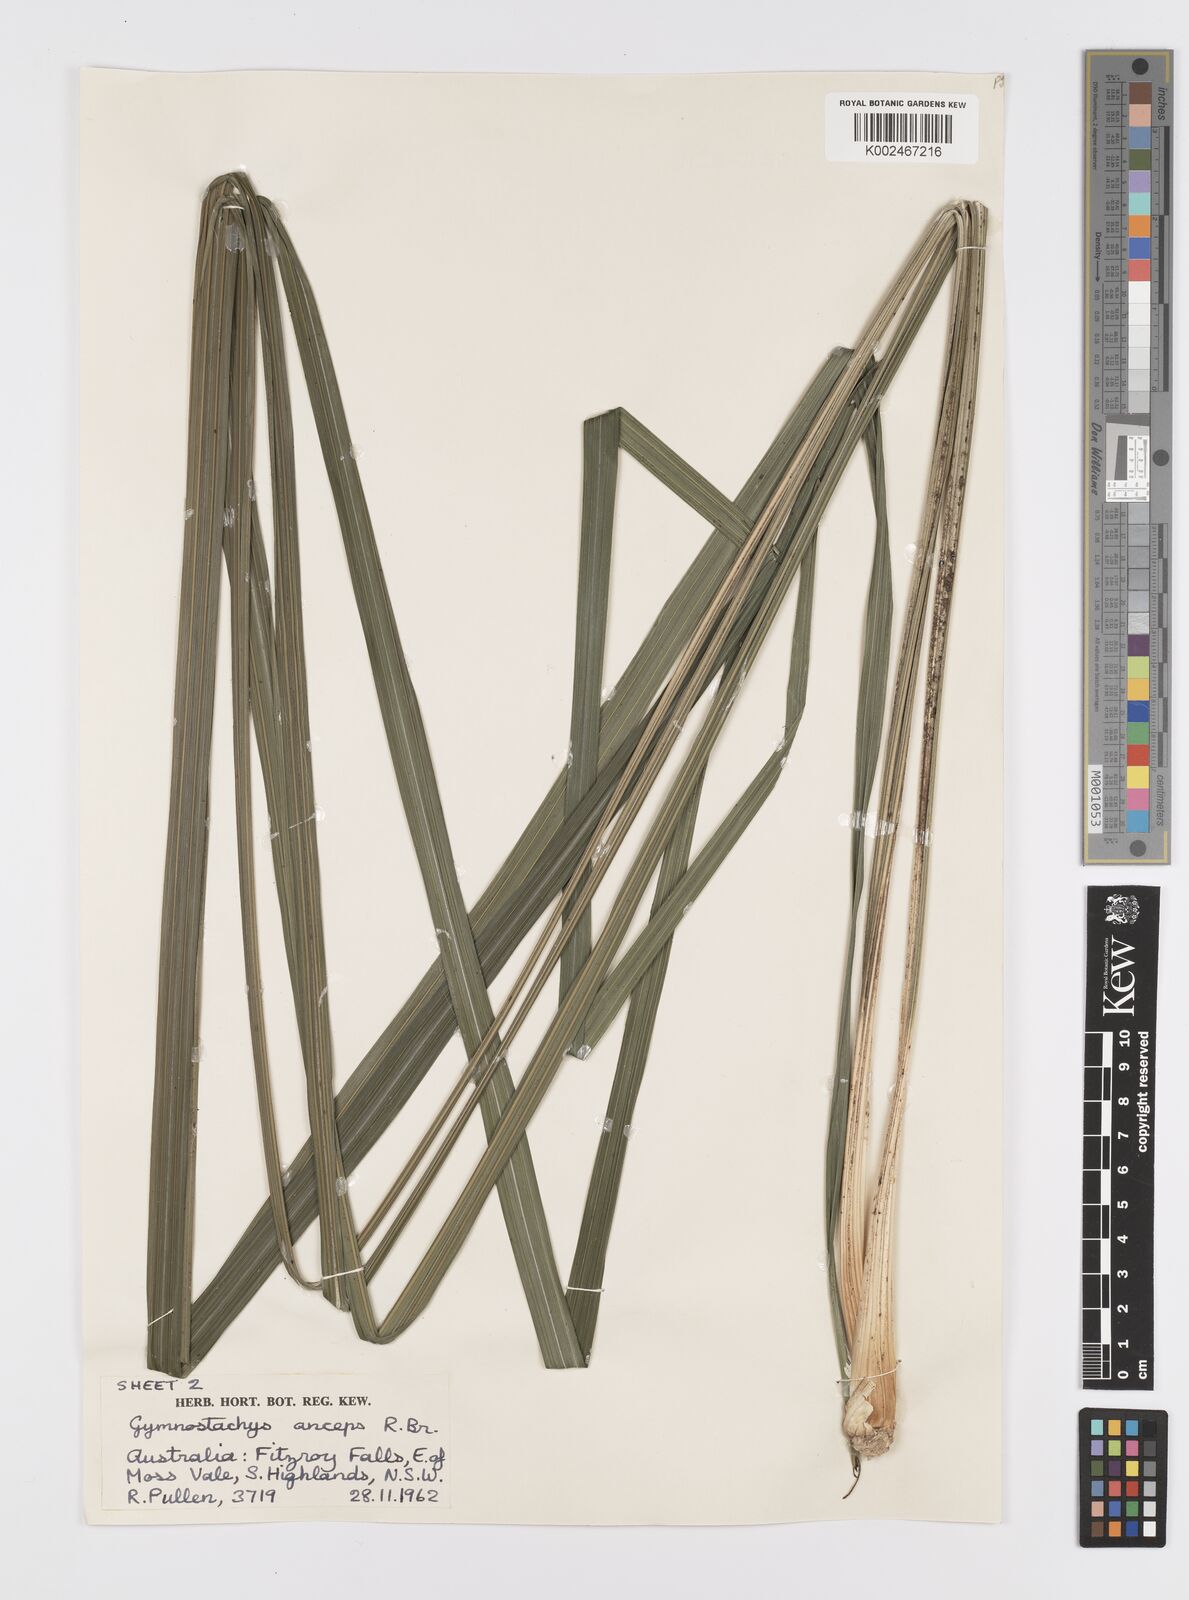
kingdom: Plantae
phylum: Tracheophyta
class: Liliopsida
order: Alismatales
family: Araceae
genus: Gymnostachys
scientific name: Gymnostachys anceps
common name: Settler's-flax
